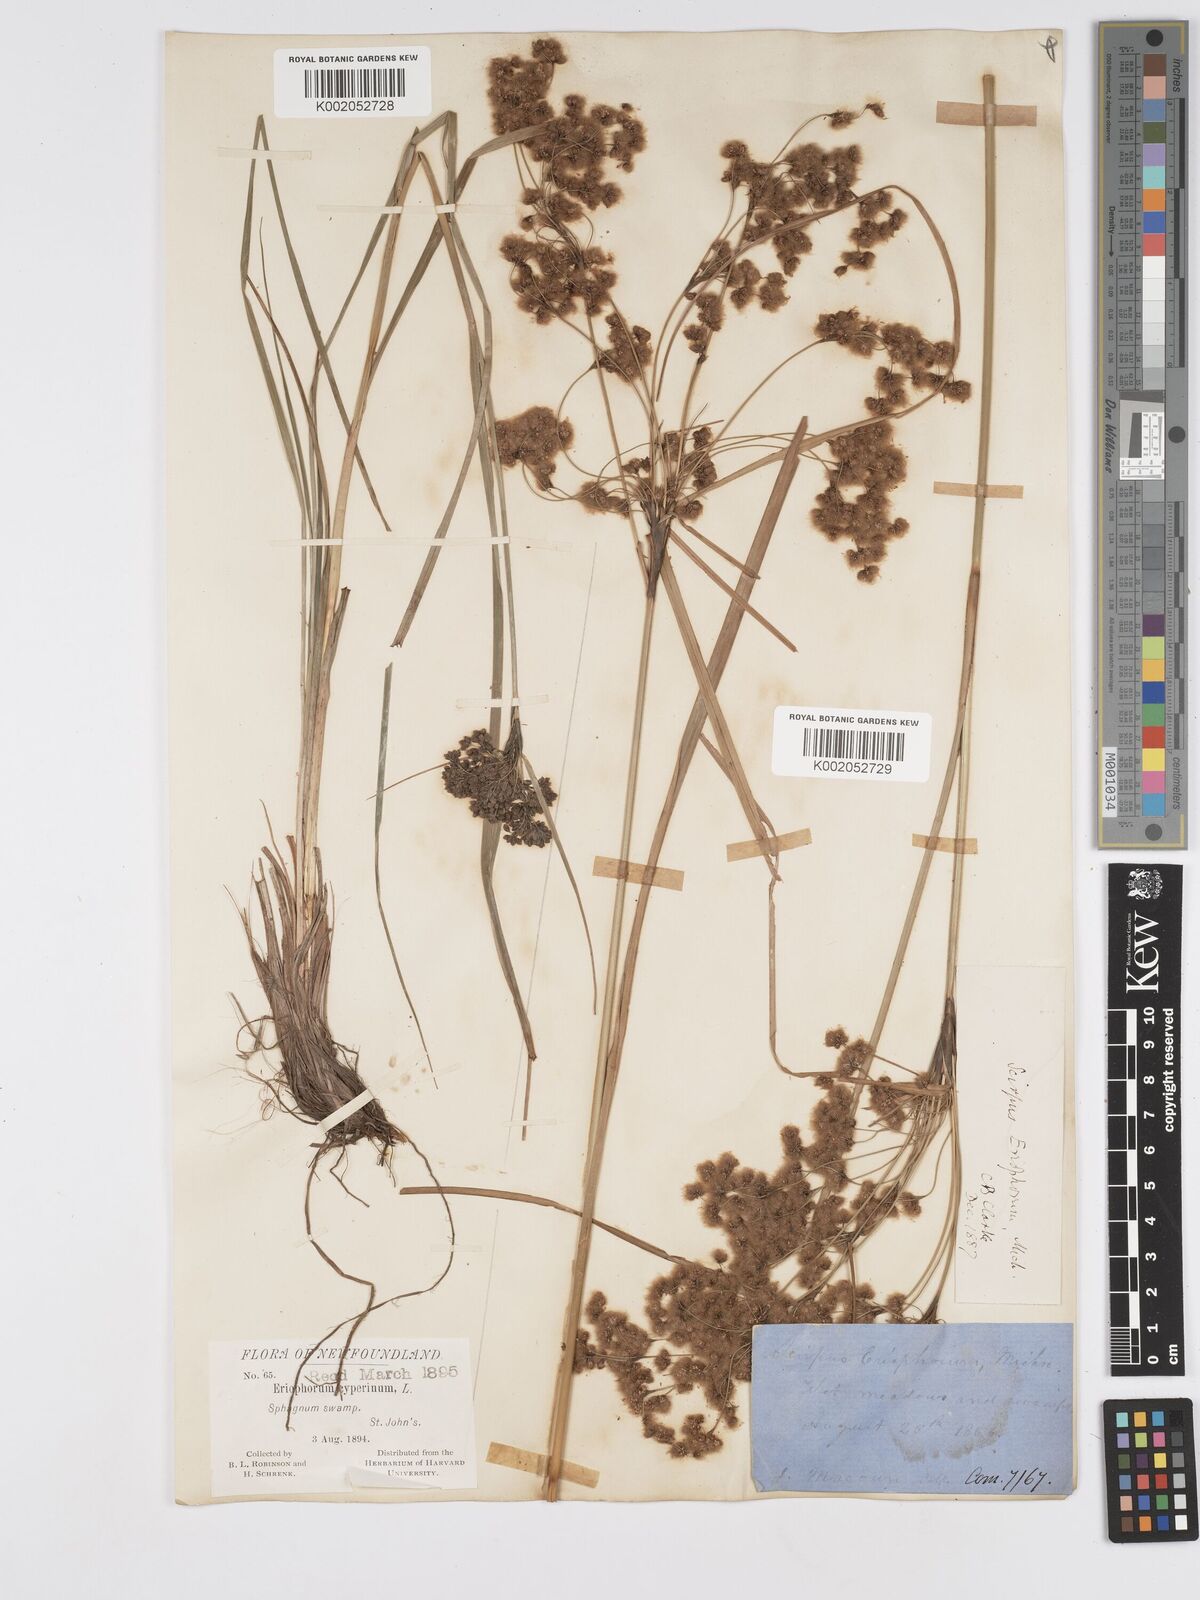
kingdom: Plantae
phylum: Tracheophyta
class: Liliopsida
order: Poales
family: Cyperaceae
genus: Scirpus
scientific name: Scirpus cyperinus
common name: Black-sheathed bulrush
